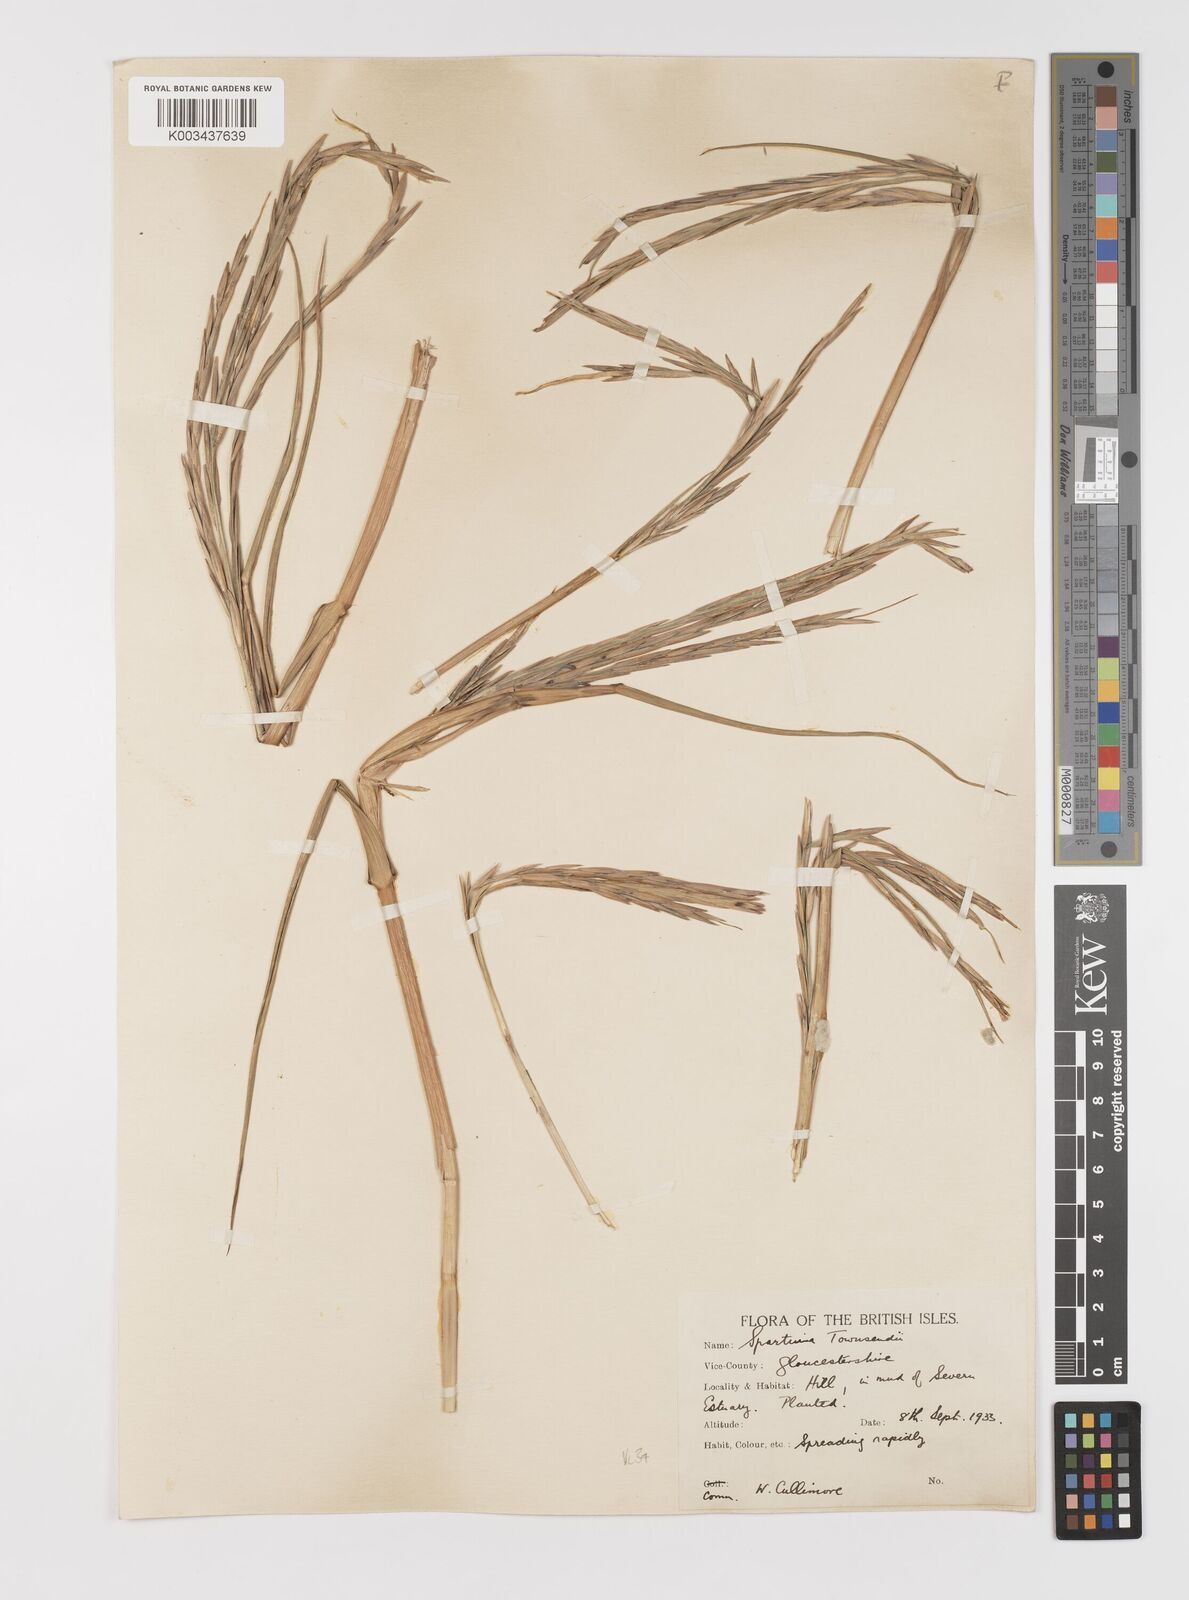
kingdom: Plantae
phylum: Tracheophyta
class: Liliopsida
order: Poales
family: Poaceae
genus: Sporobolus
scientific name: Sporobolus anglicus
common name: English cordgrass
